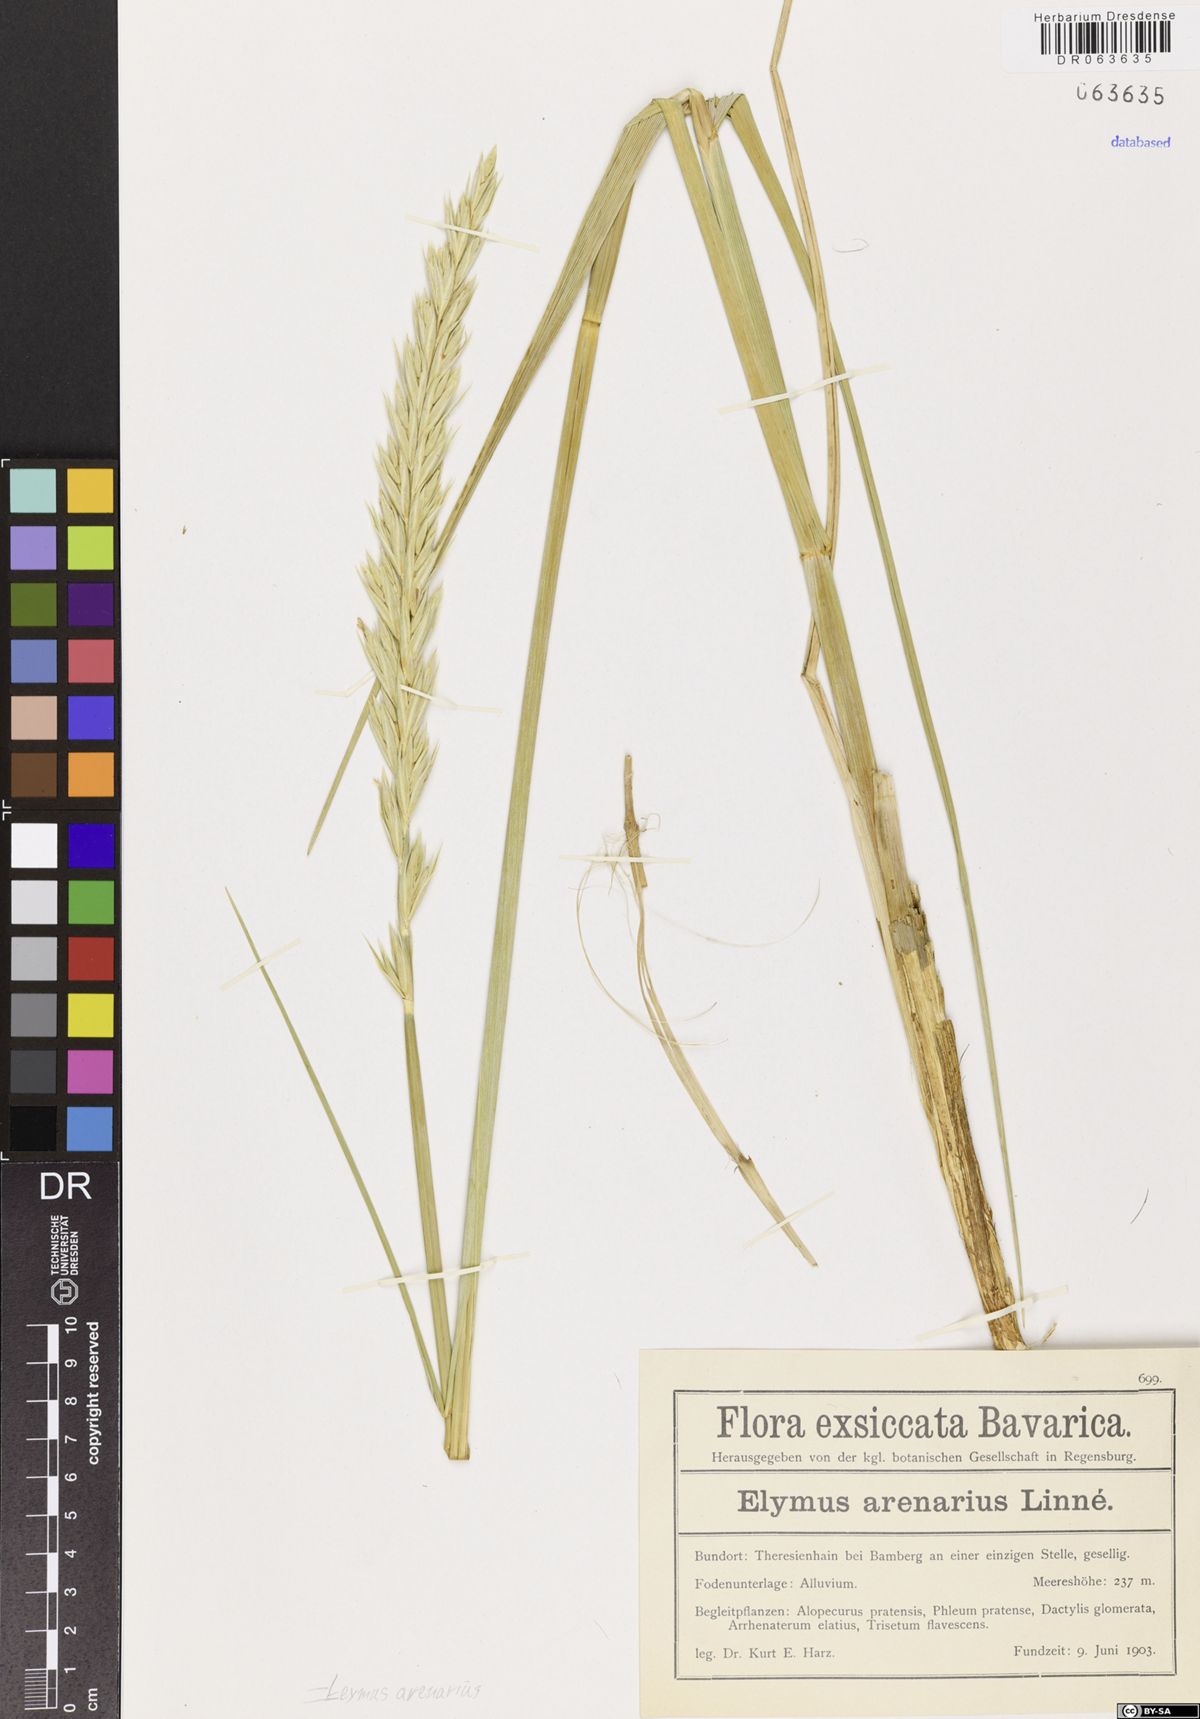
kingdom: Plantae
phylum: Tracheophyta
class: Liliopsida
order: Poales
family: Poaceae
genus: Leymus
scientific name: Leymus arenarius
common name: Lyme-grass
